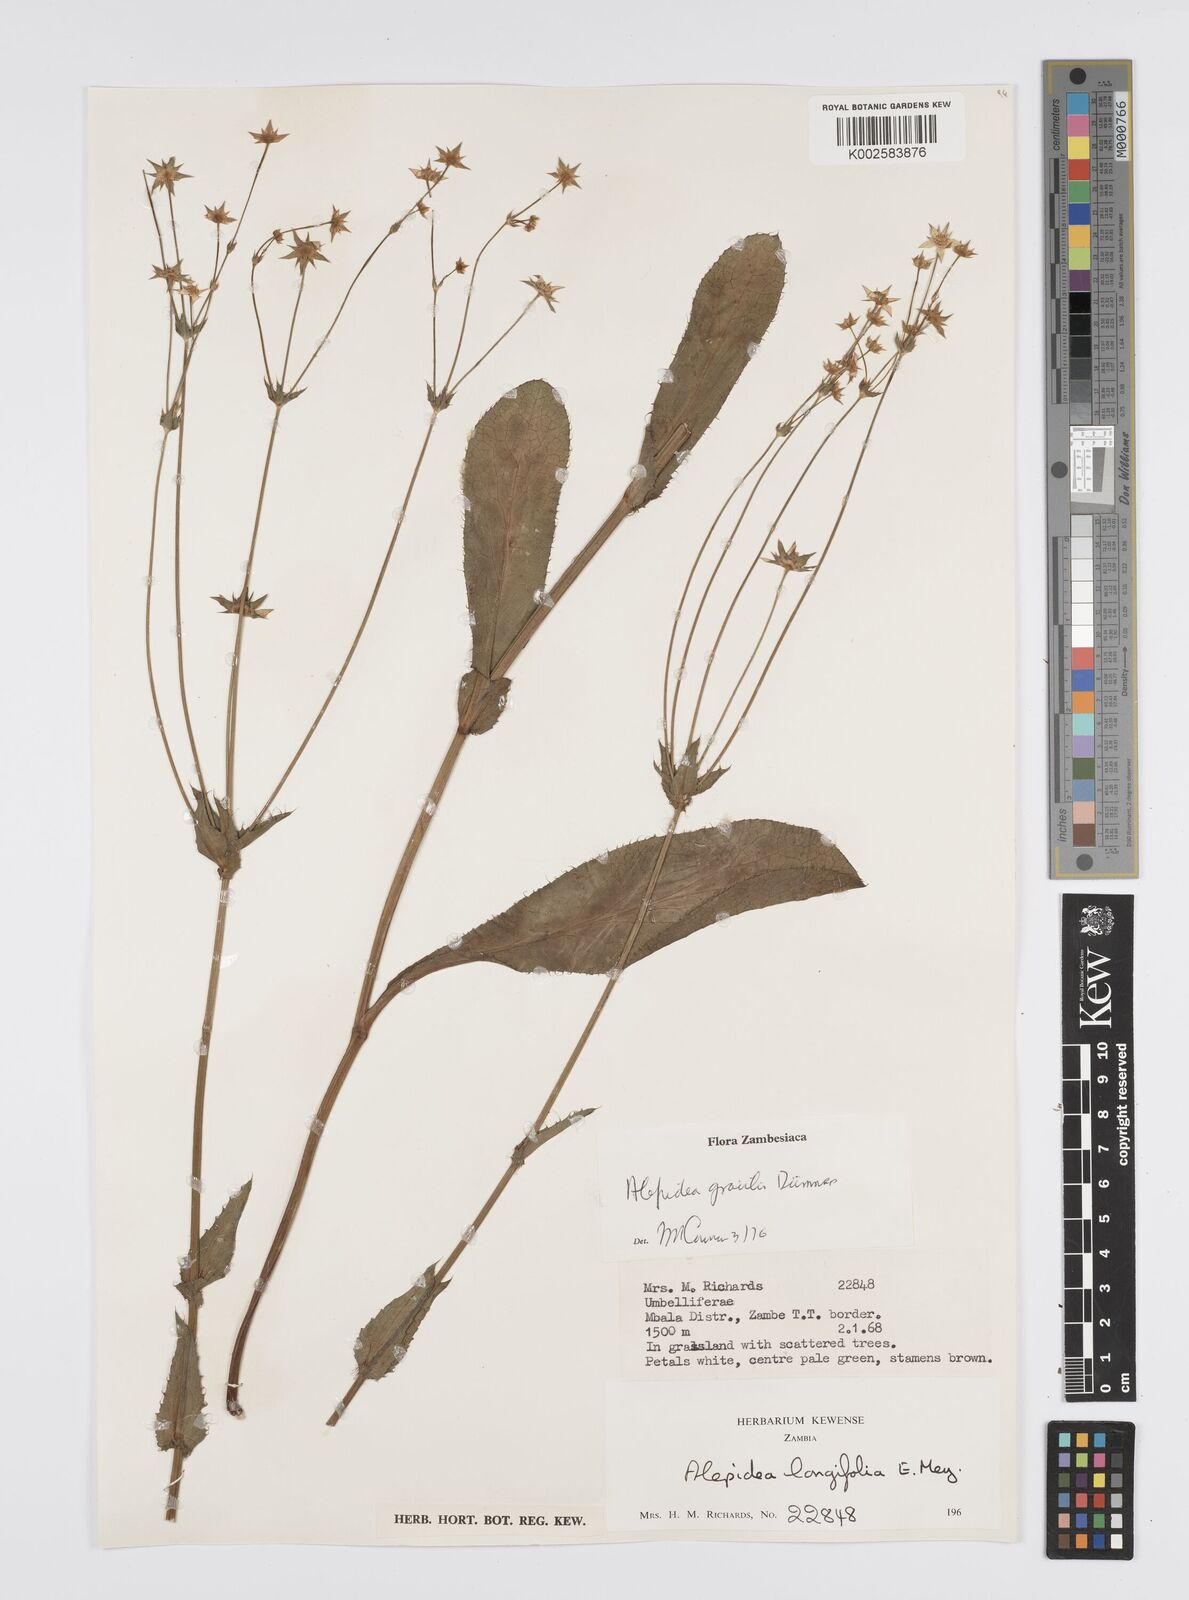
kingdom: Plantae
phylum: Tracheophyta
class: Magnoliopsida
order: Apiales
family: Apiaceae
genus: Alepidea
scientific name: Alepidea
